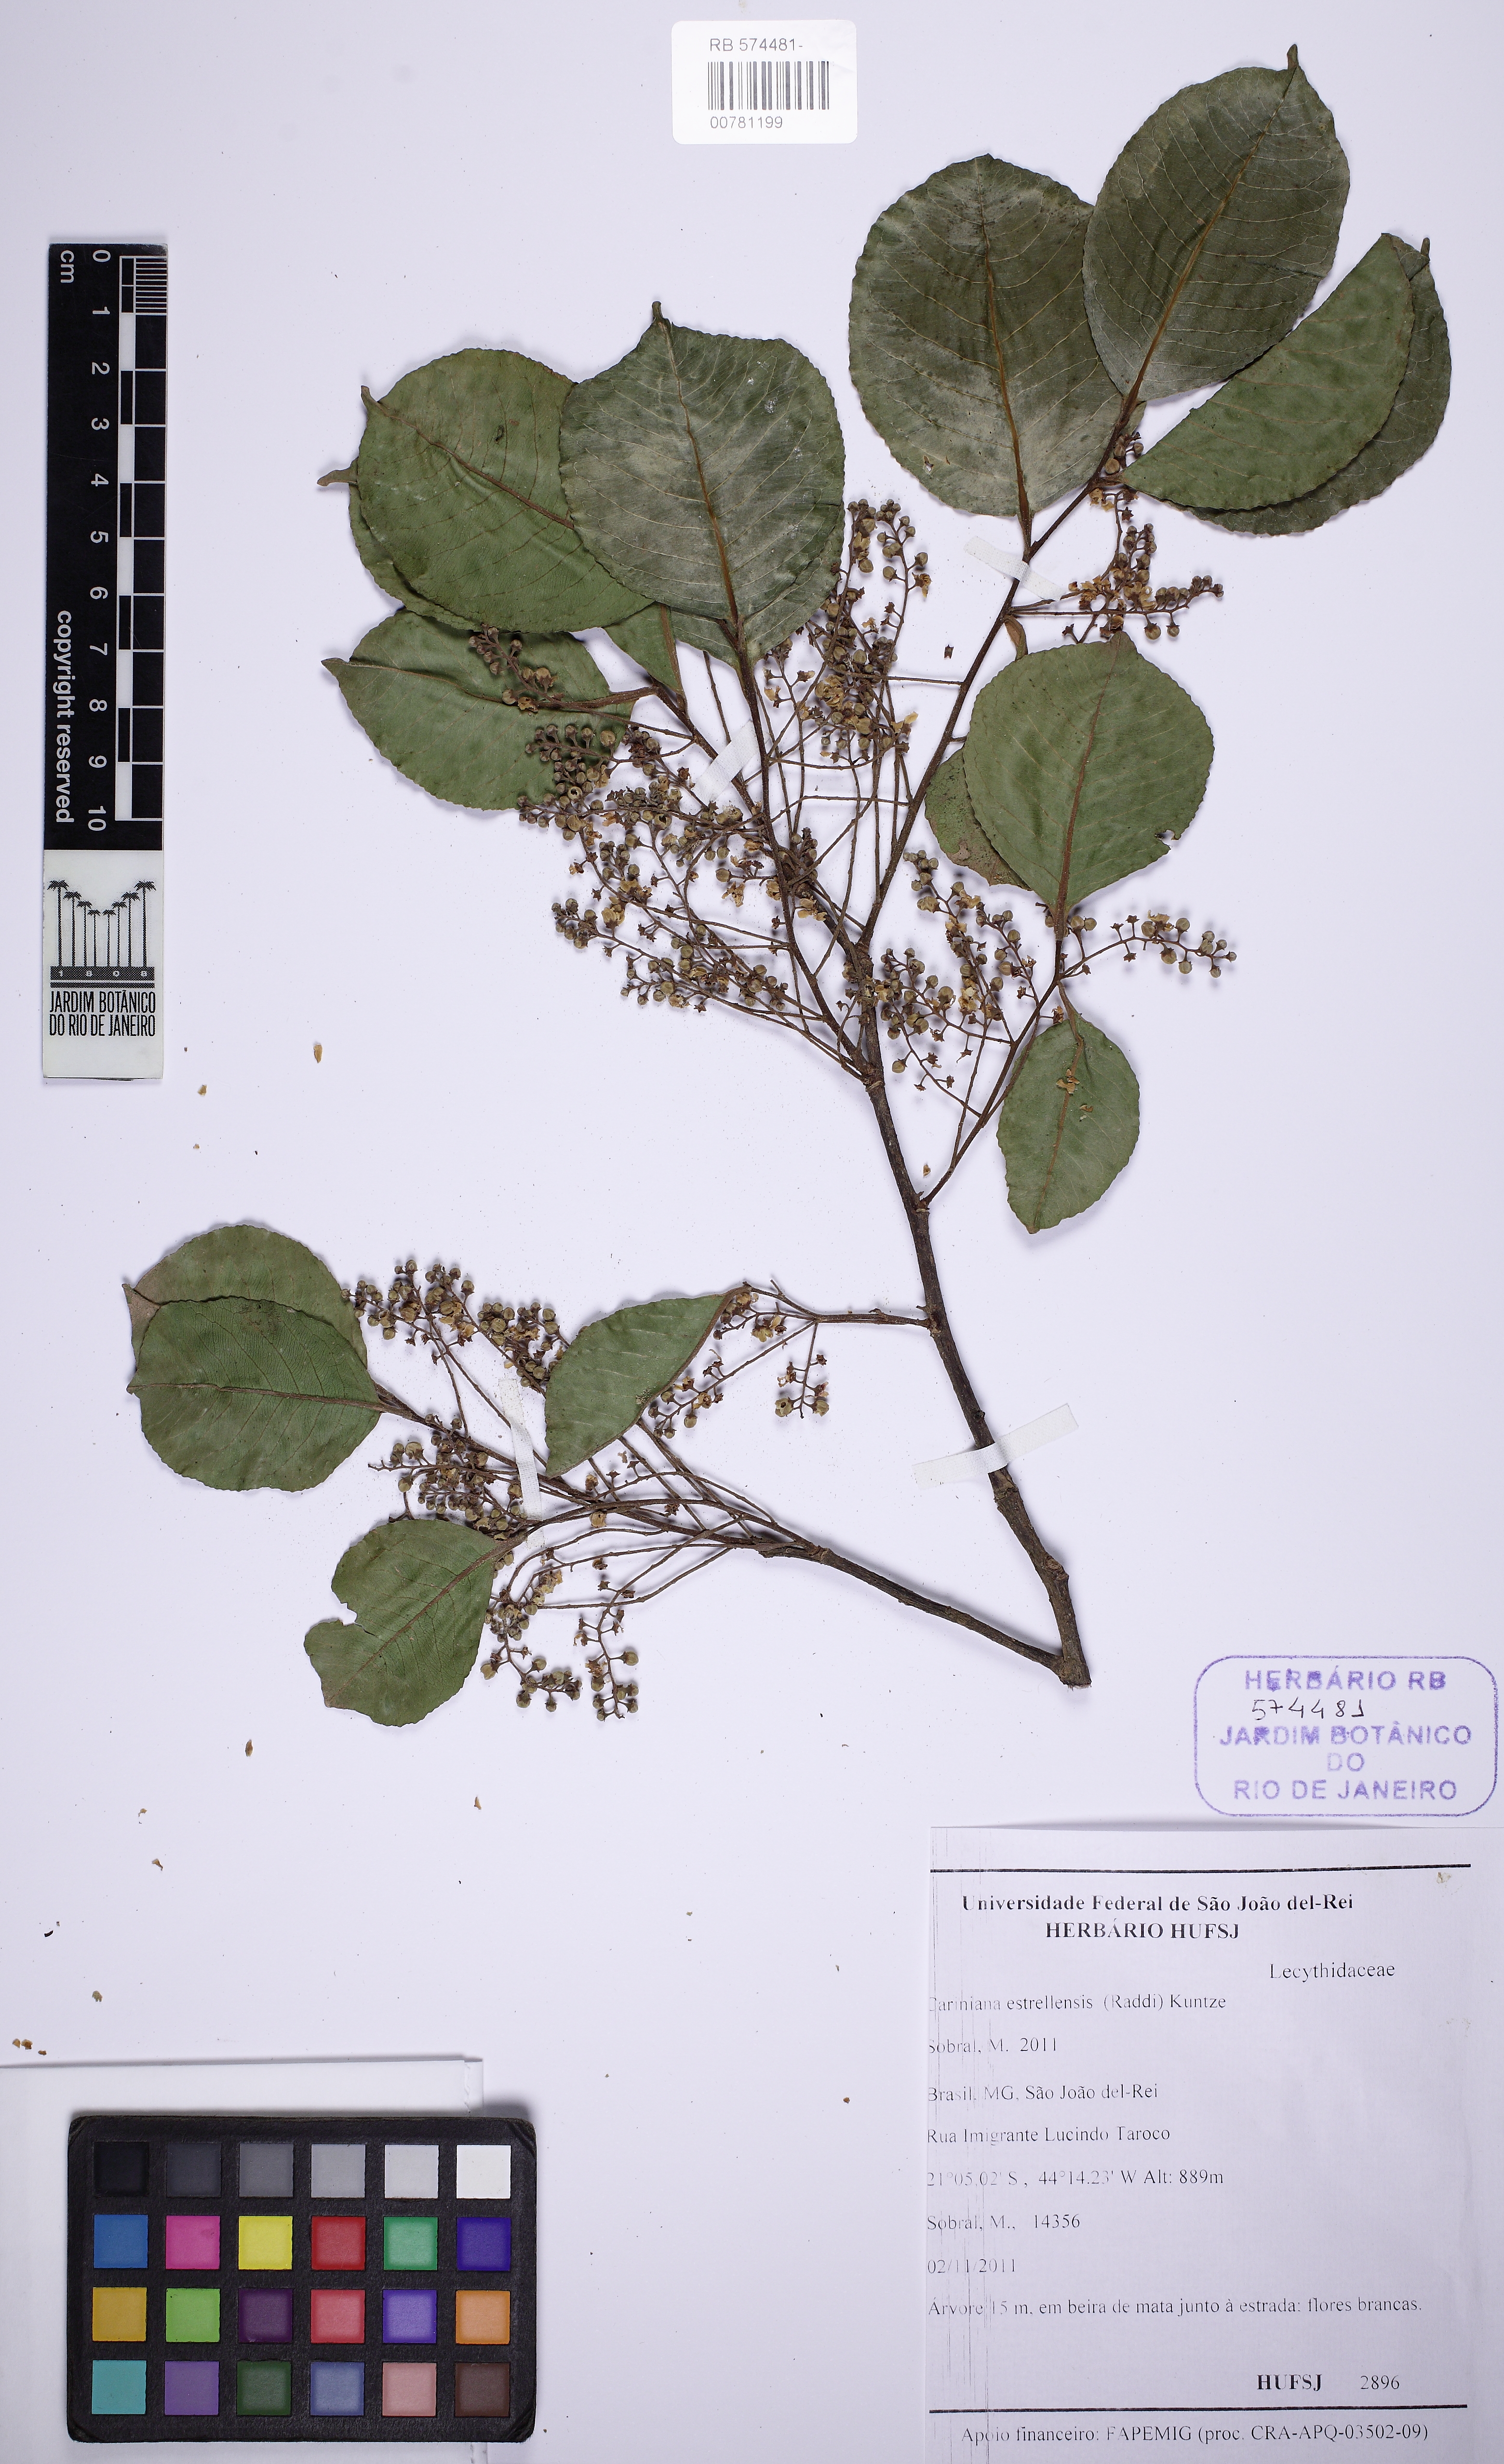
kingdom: Plantae
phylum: Tracheophyta
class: Magnoliopsida
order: Ericales
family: Lecythidaceae
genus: Cariniana
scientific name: Cariniana estrellensis
